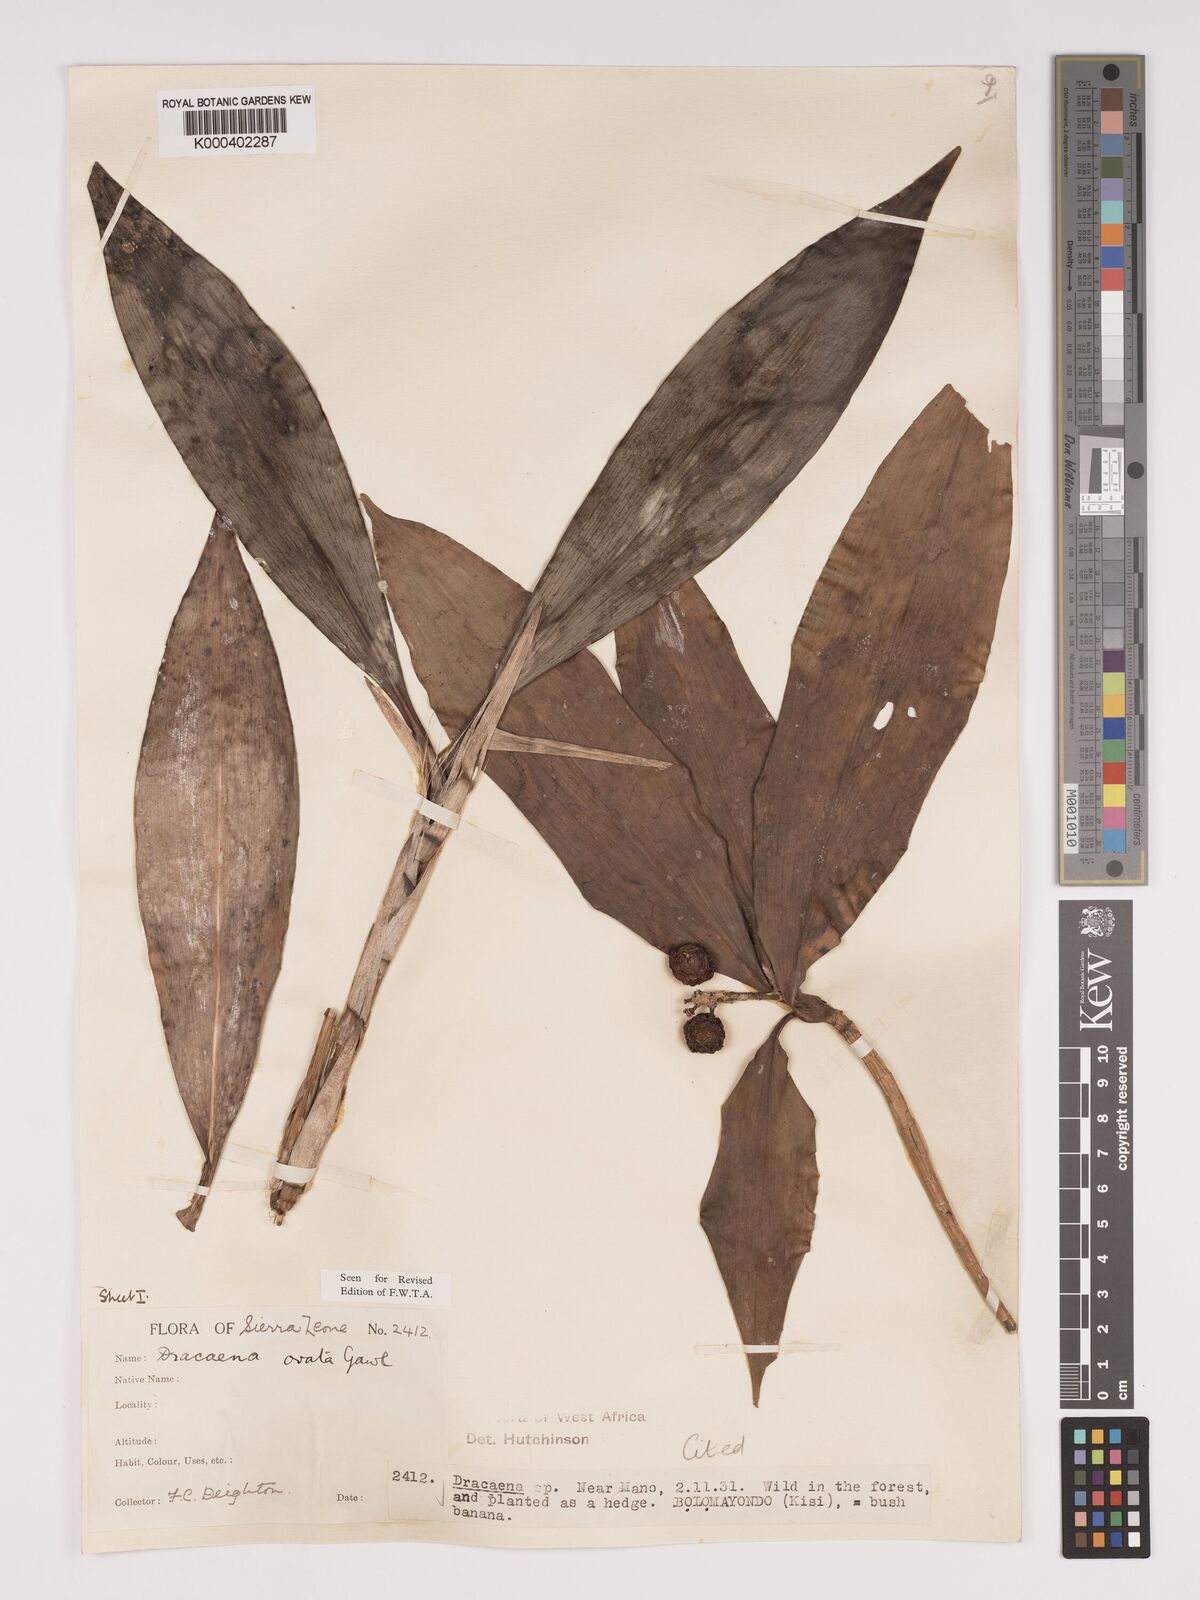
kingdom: Plantae
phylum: Tracheophyta
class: Liliopsida
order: Asparagales
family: Asparagaceae
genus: Dracaena
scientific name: Dracaena ovata
